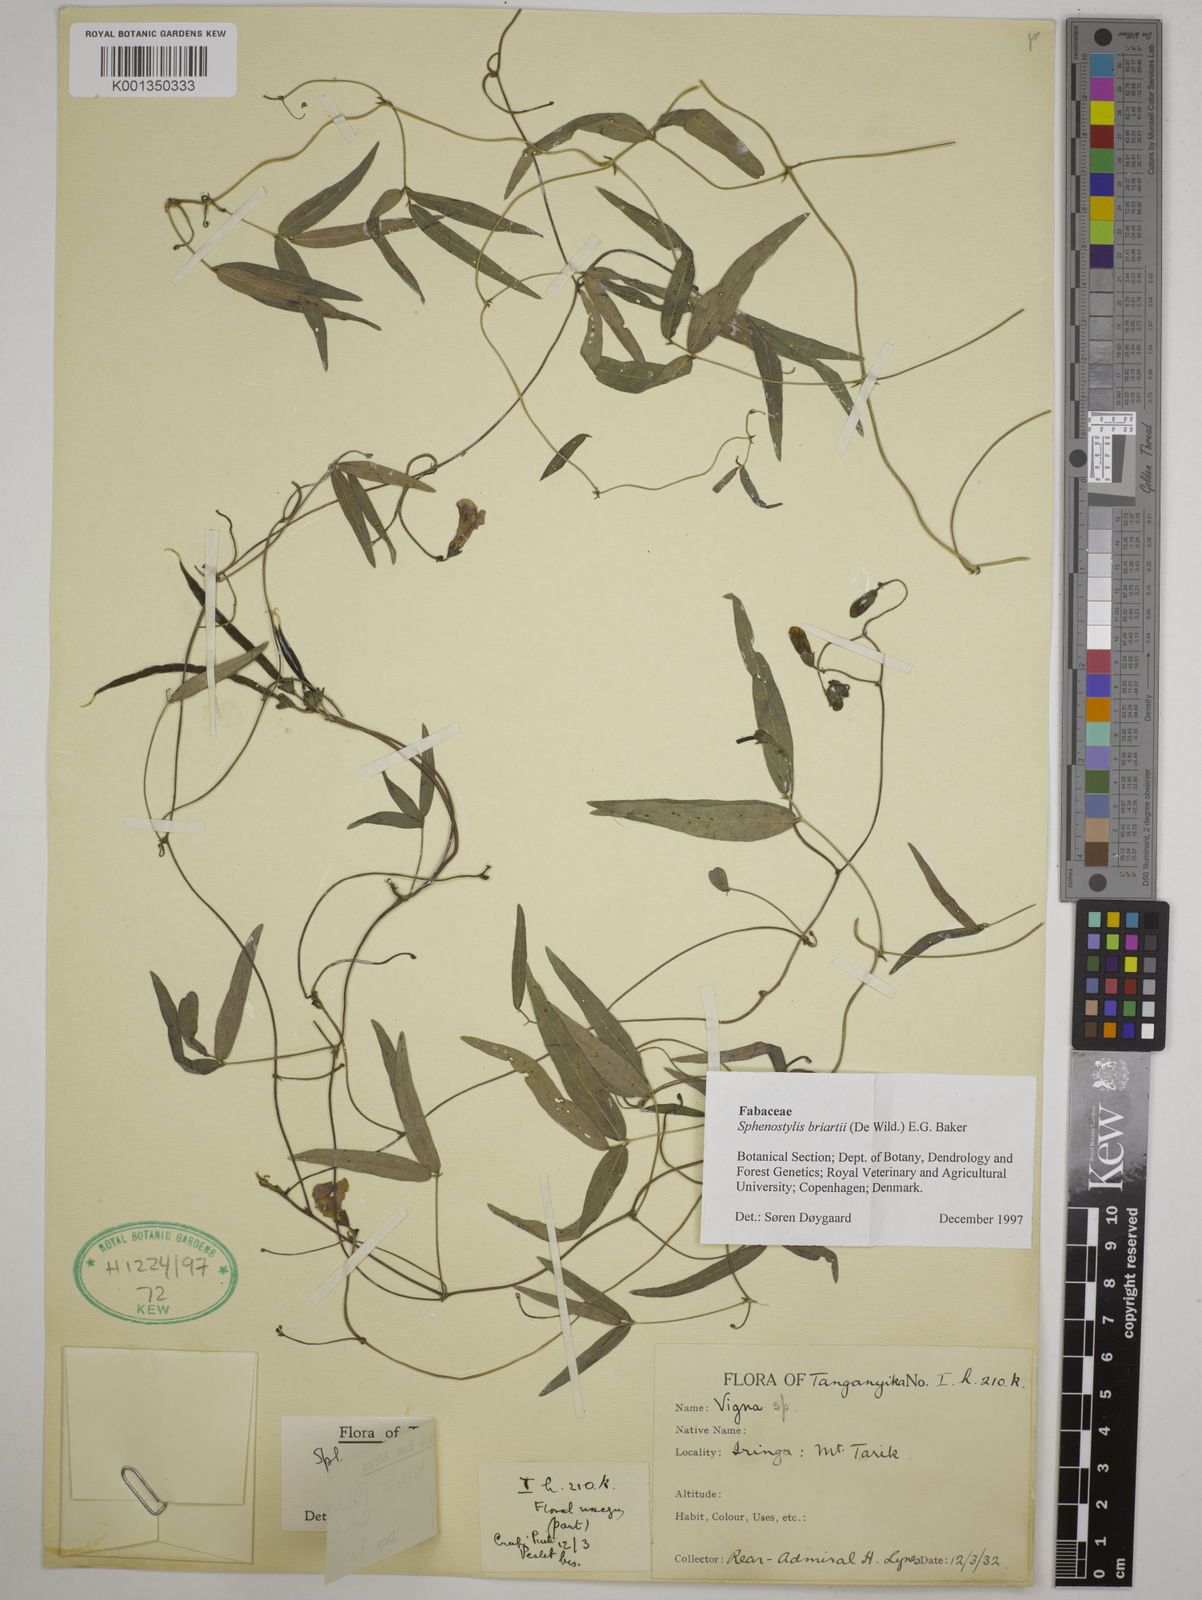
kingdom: Plantae
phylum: Tracheophyta
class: Magnoliopsida
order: Fabales
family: Fabaceae
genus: Sphenostylis
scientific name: Sphenostylis briartii
